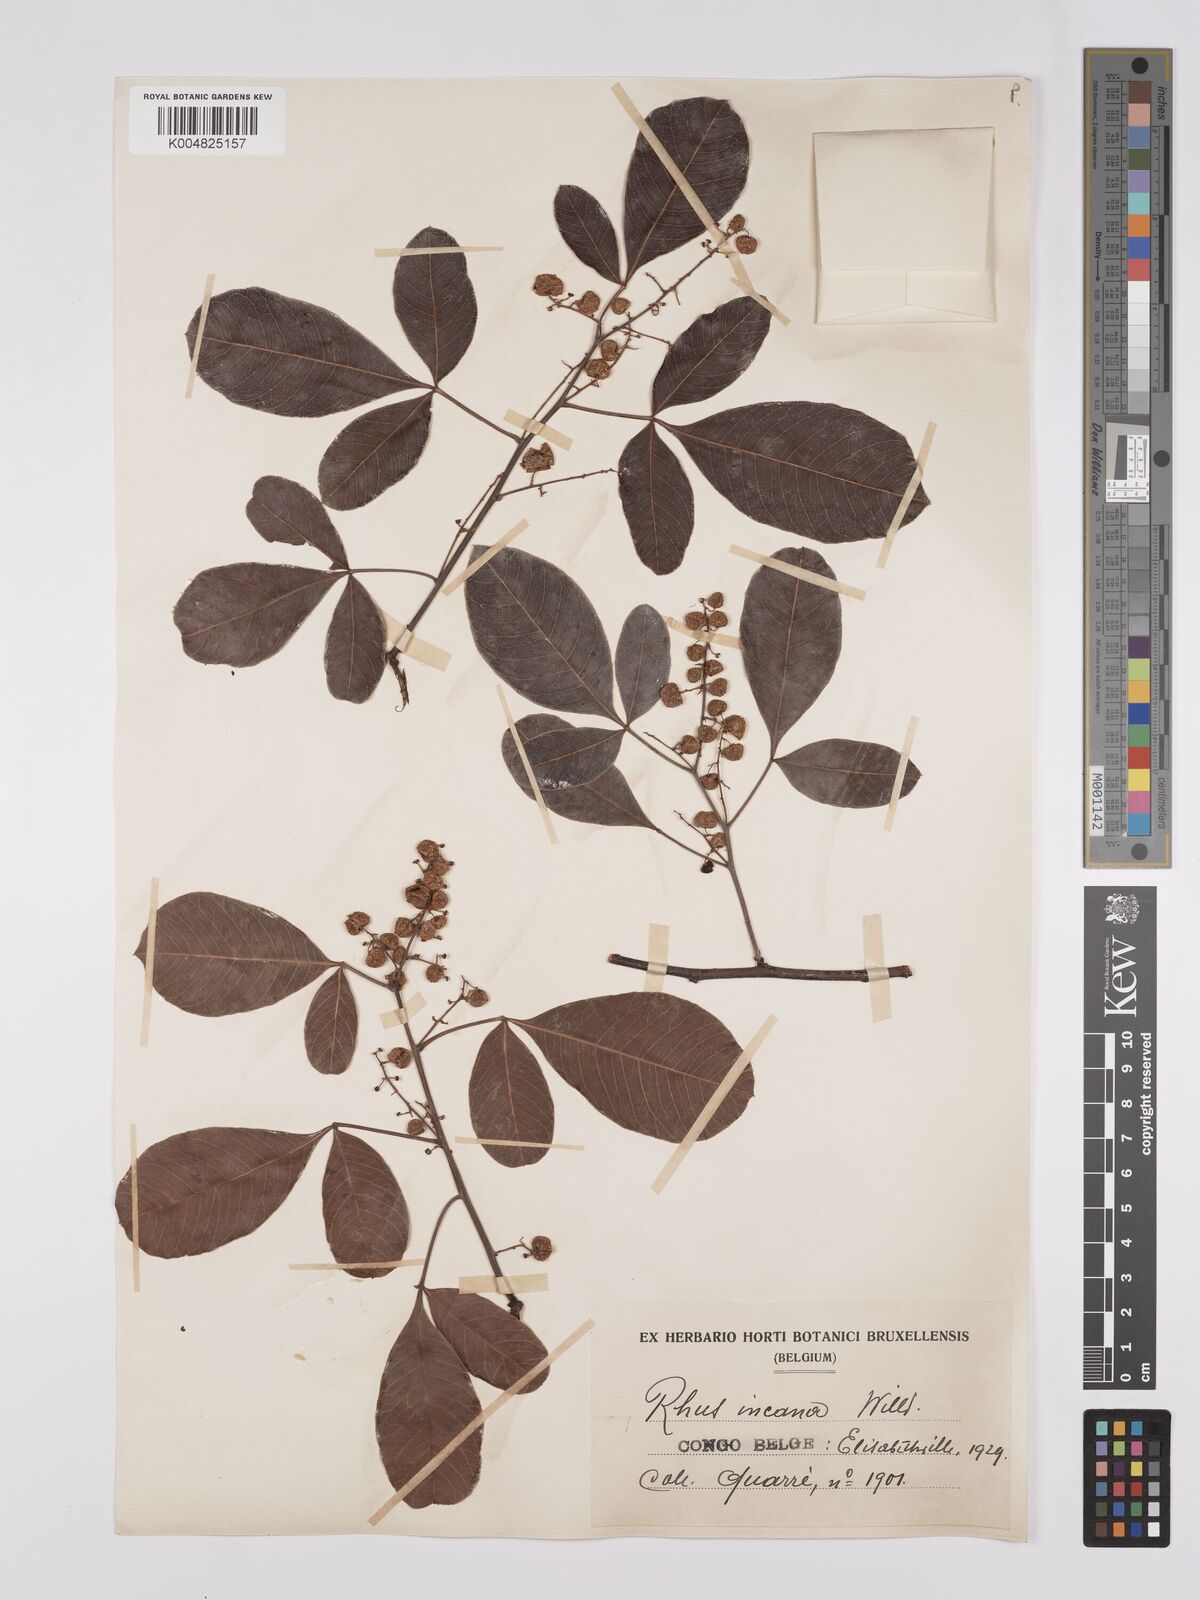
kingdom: Plantae
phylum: Tracheophyta
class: Magnoliopsida
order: Sapindales
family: Anacardiaceae
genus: Searsia
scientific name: Searsia longipes
